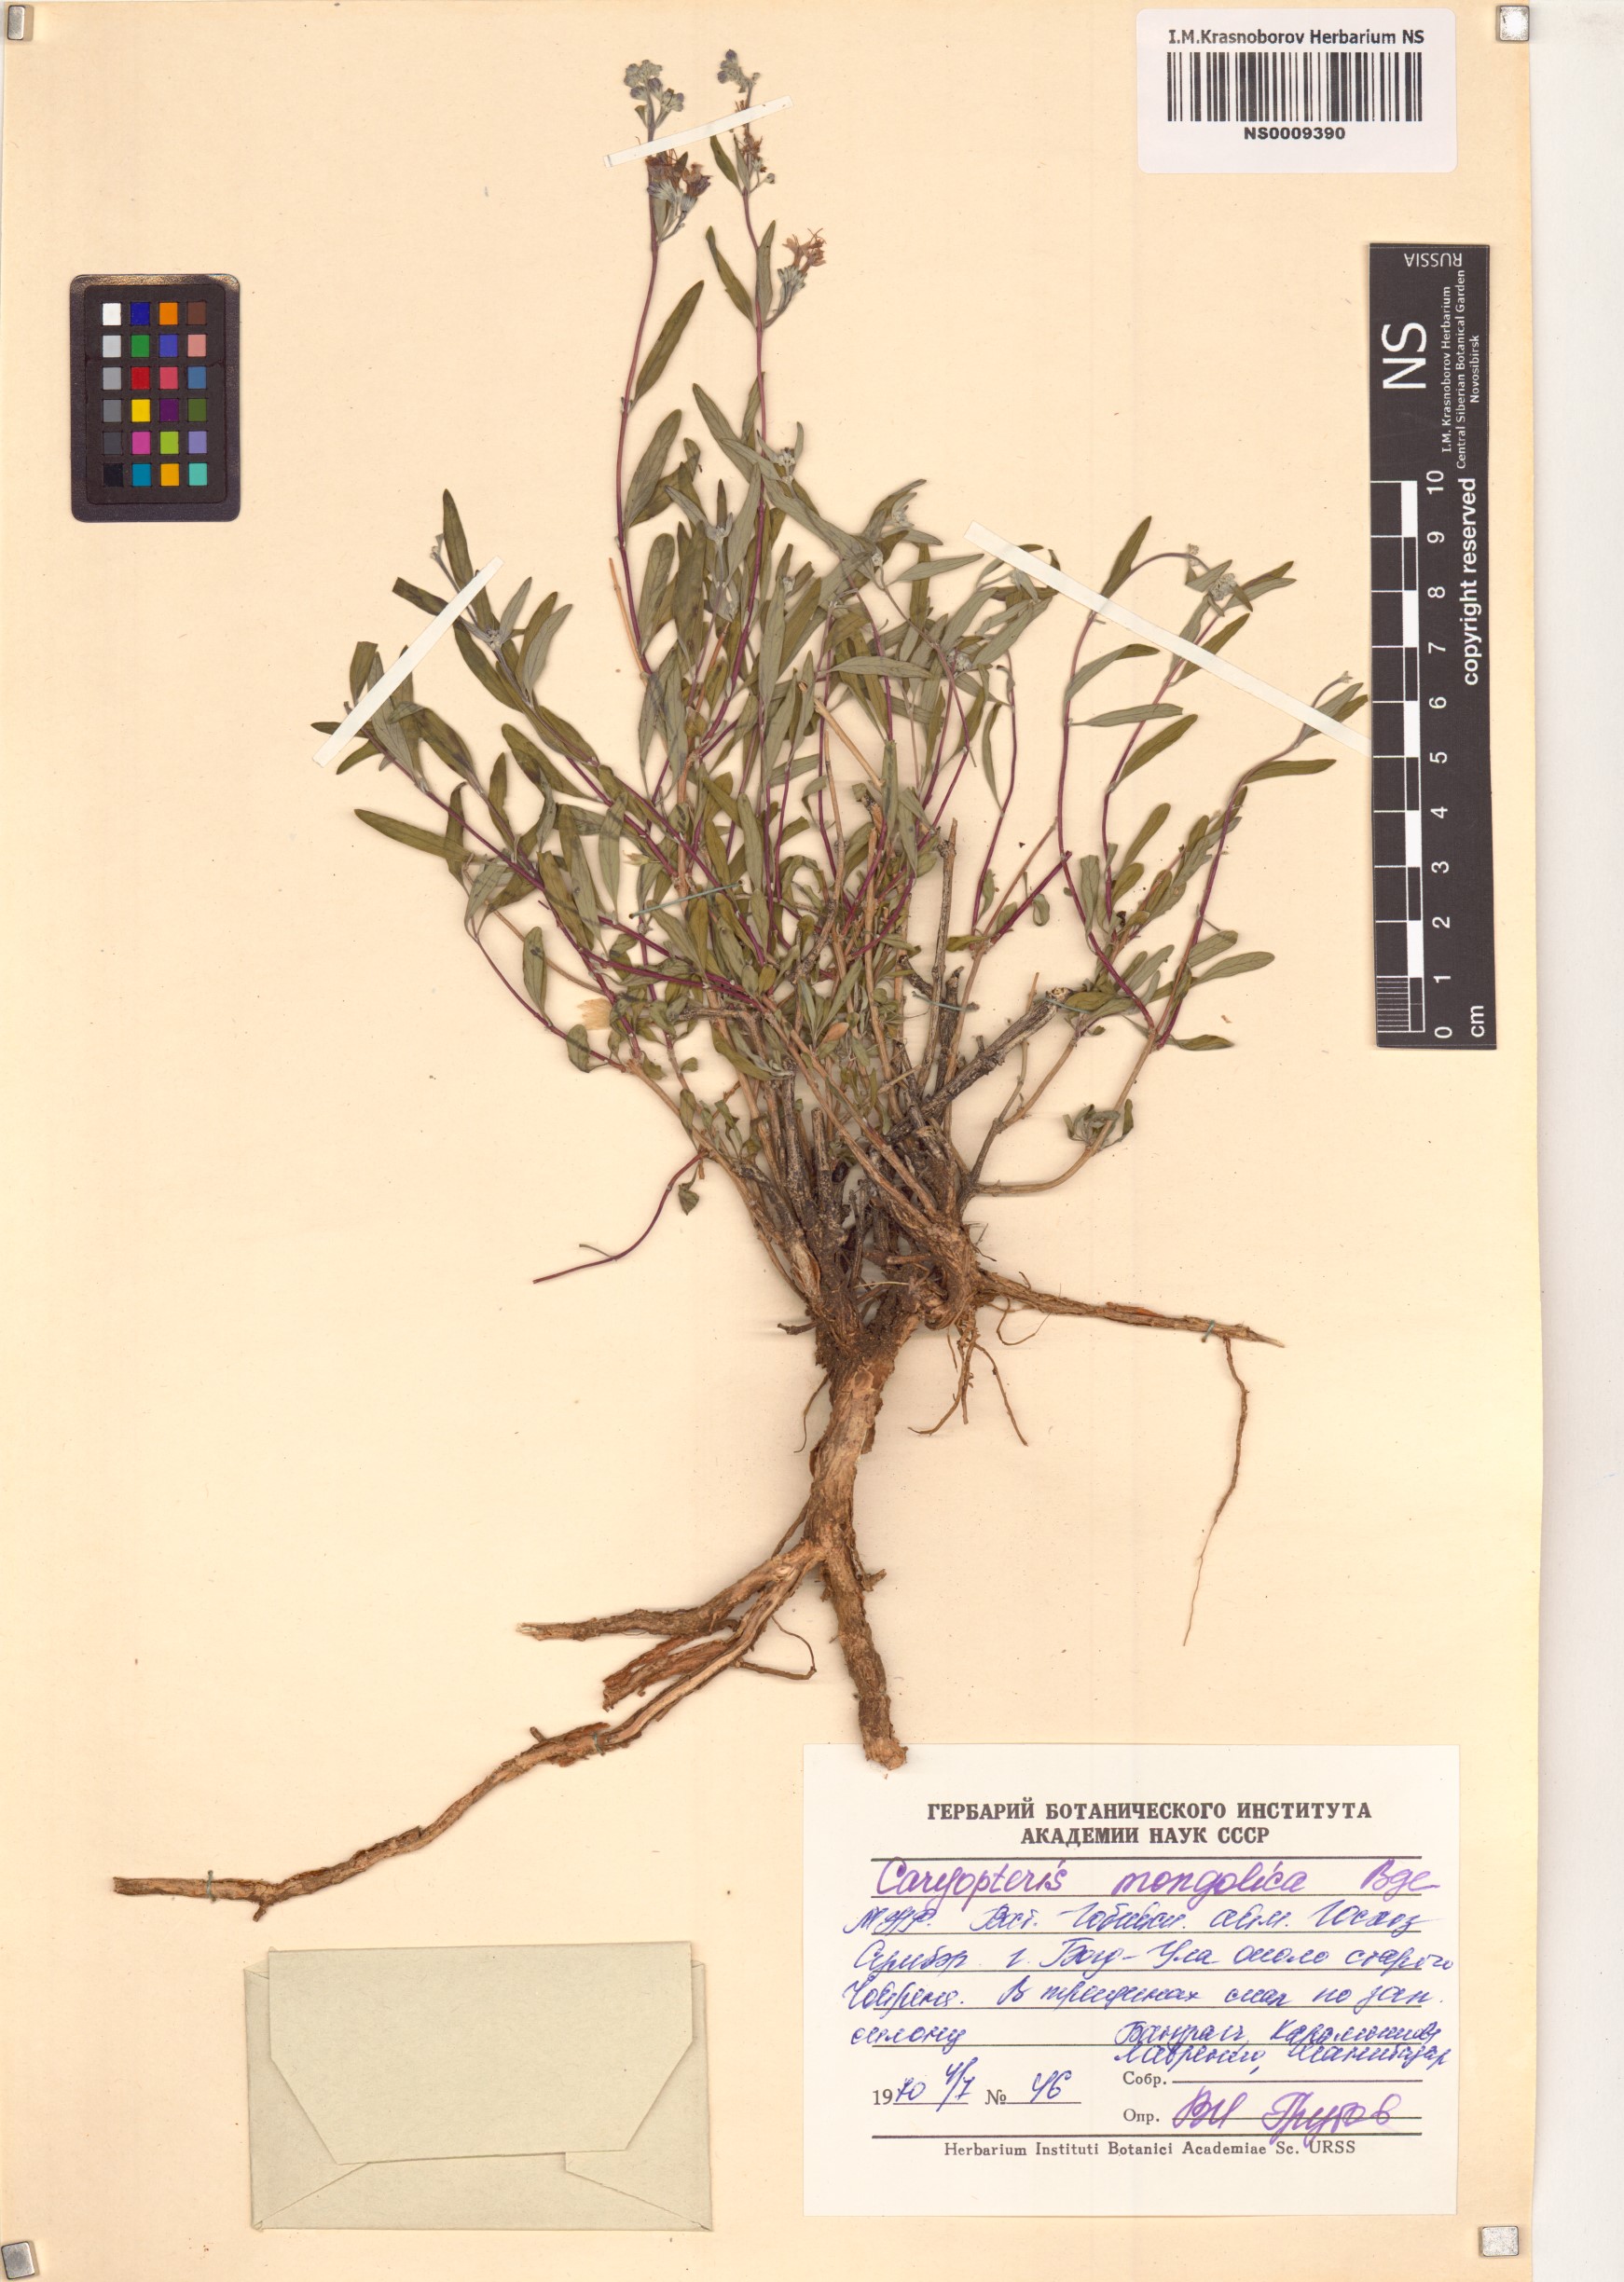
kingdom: Plantae
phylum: Tracheophyta
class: Magnoliopsida
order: Lamiales
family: Lamiaceae
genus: Caryopteris
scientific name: Caryopteris mongholica
